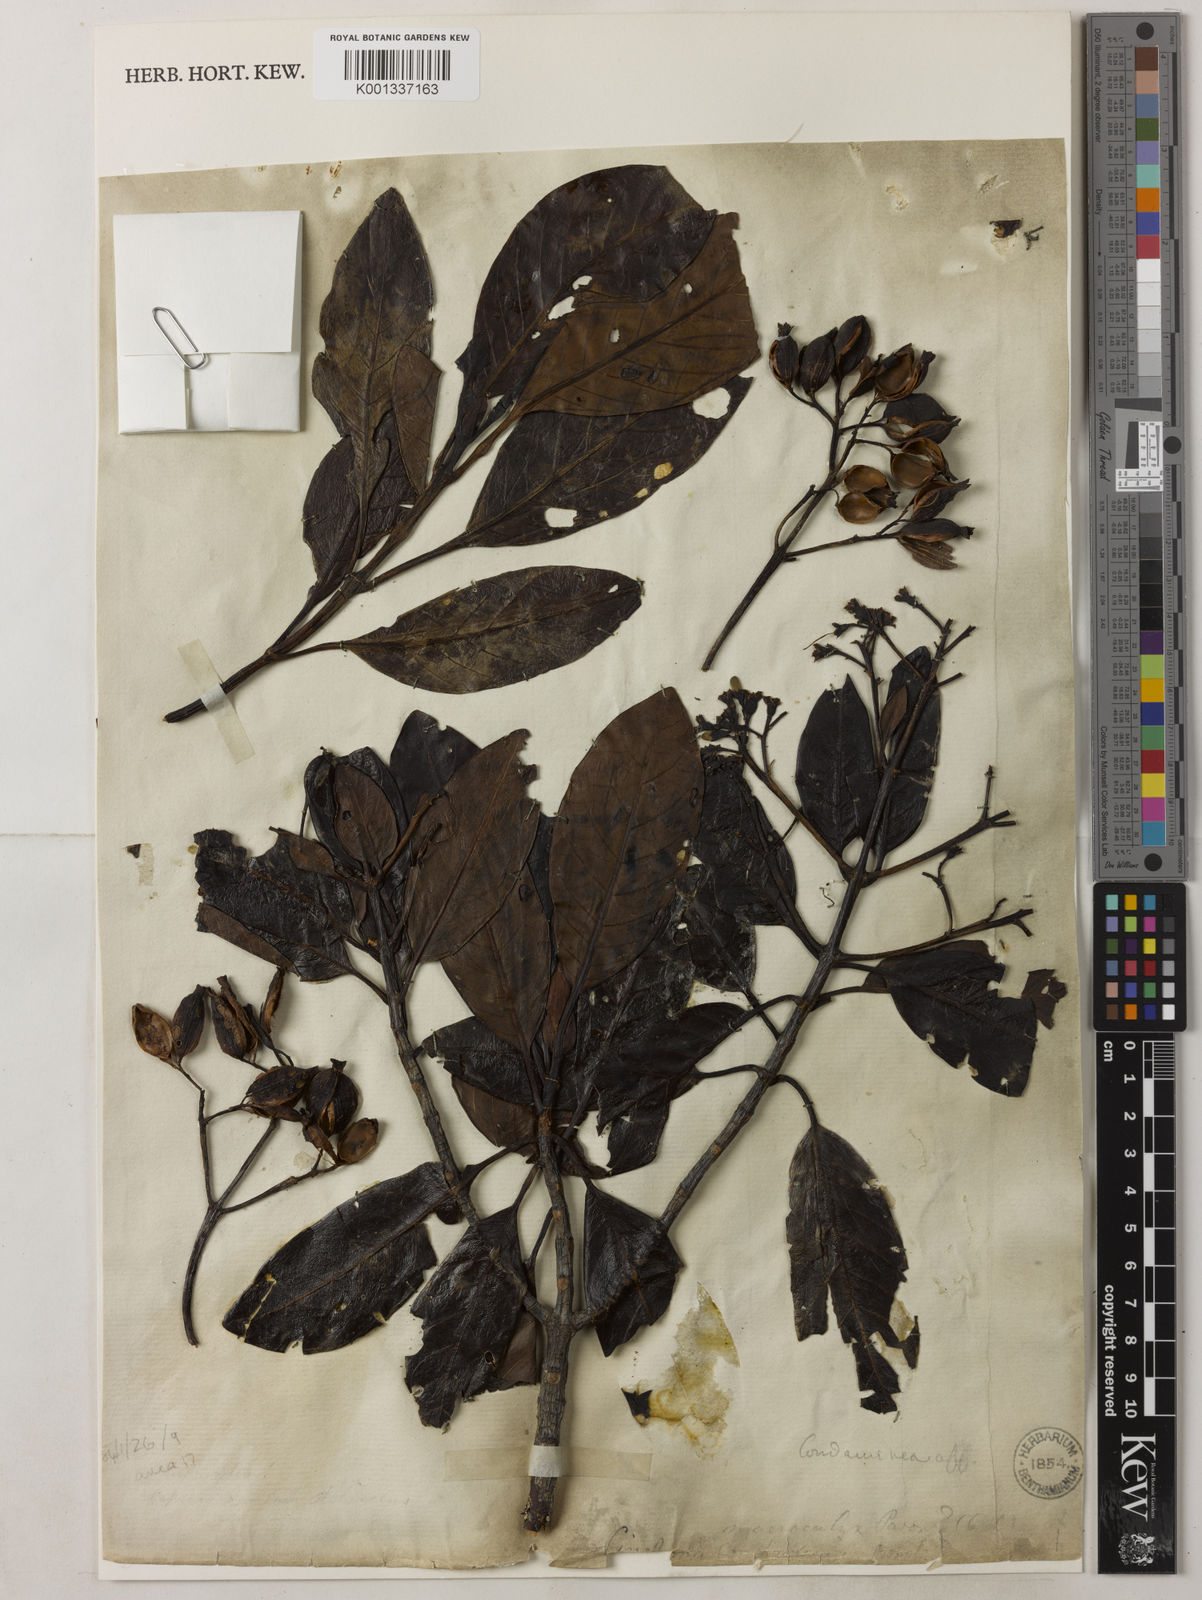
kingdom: Plantae
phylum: Tracheophyta
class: Magnoliopsida
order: Gentianales
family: Rubiaceae
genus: Cinchona
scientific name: Cinchona lucumifolia
